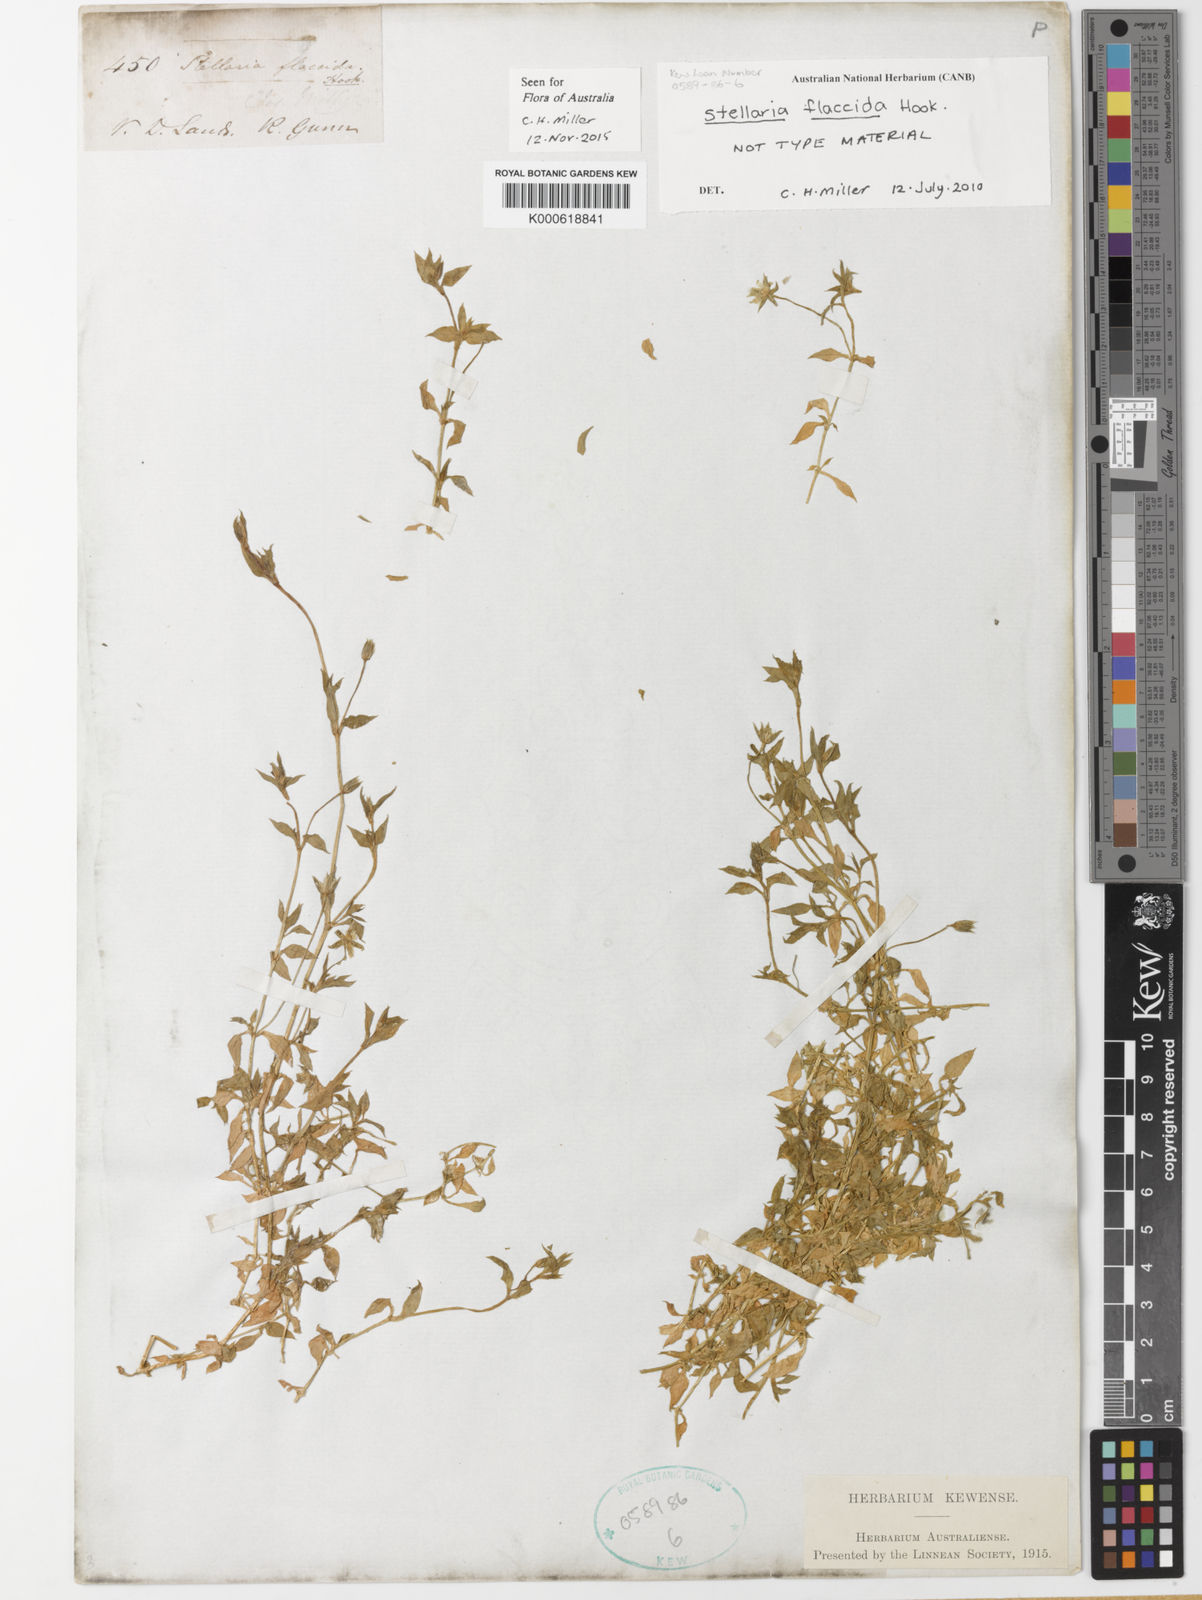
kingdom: Plantae
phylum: Tracheophyta
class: Magnoliopsida
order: Caryophyllales
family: Caryophyllaceae
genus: Stellaria
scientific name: Stellaria flaccida
